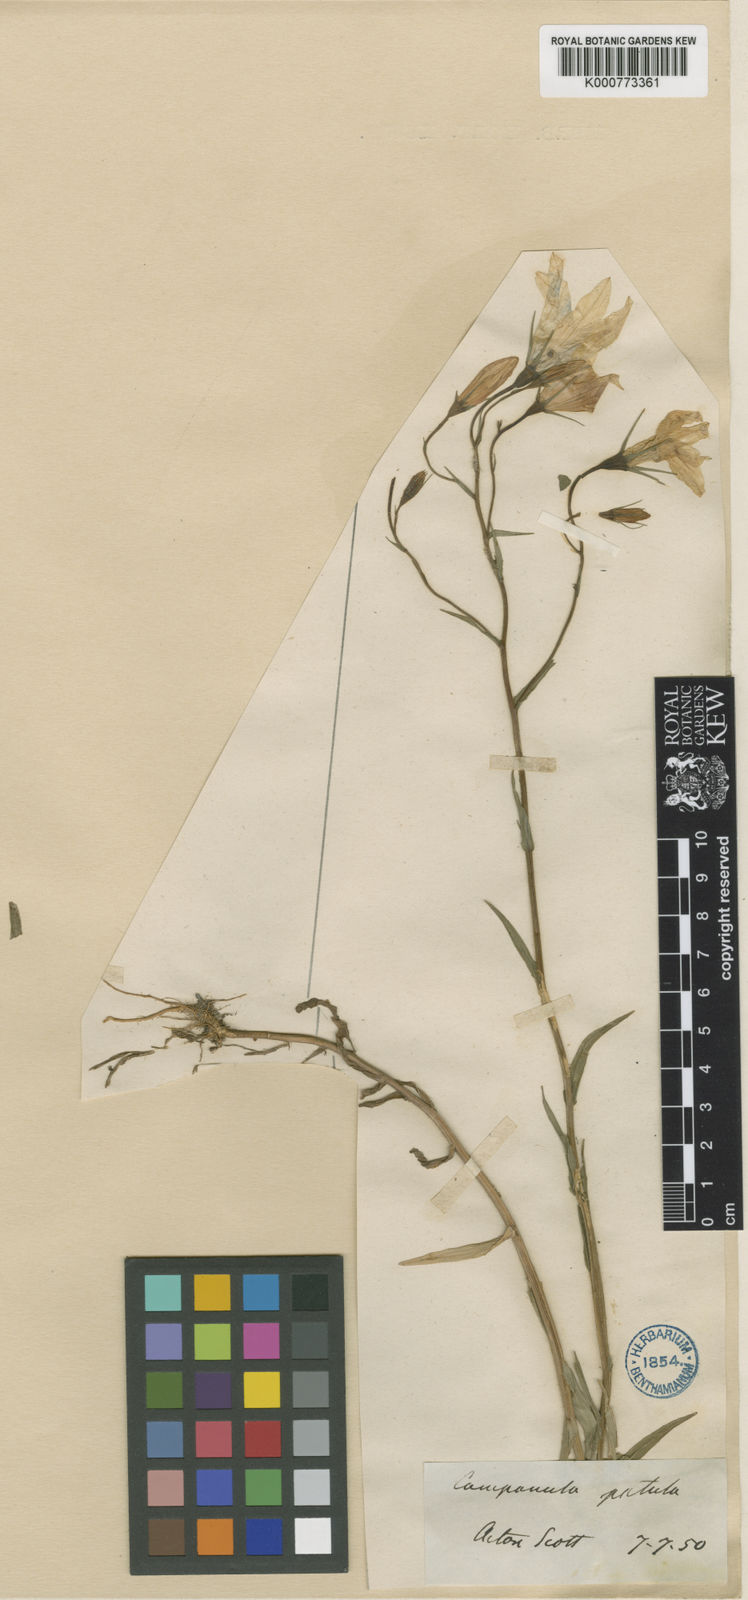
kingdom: Plantae
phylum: Tracheophyta
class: Magnoliopsida
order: Asterales
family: Campanulaceae
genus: Campanula
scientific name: Campanula patula
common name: Spreading bellflower
